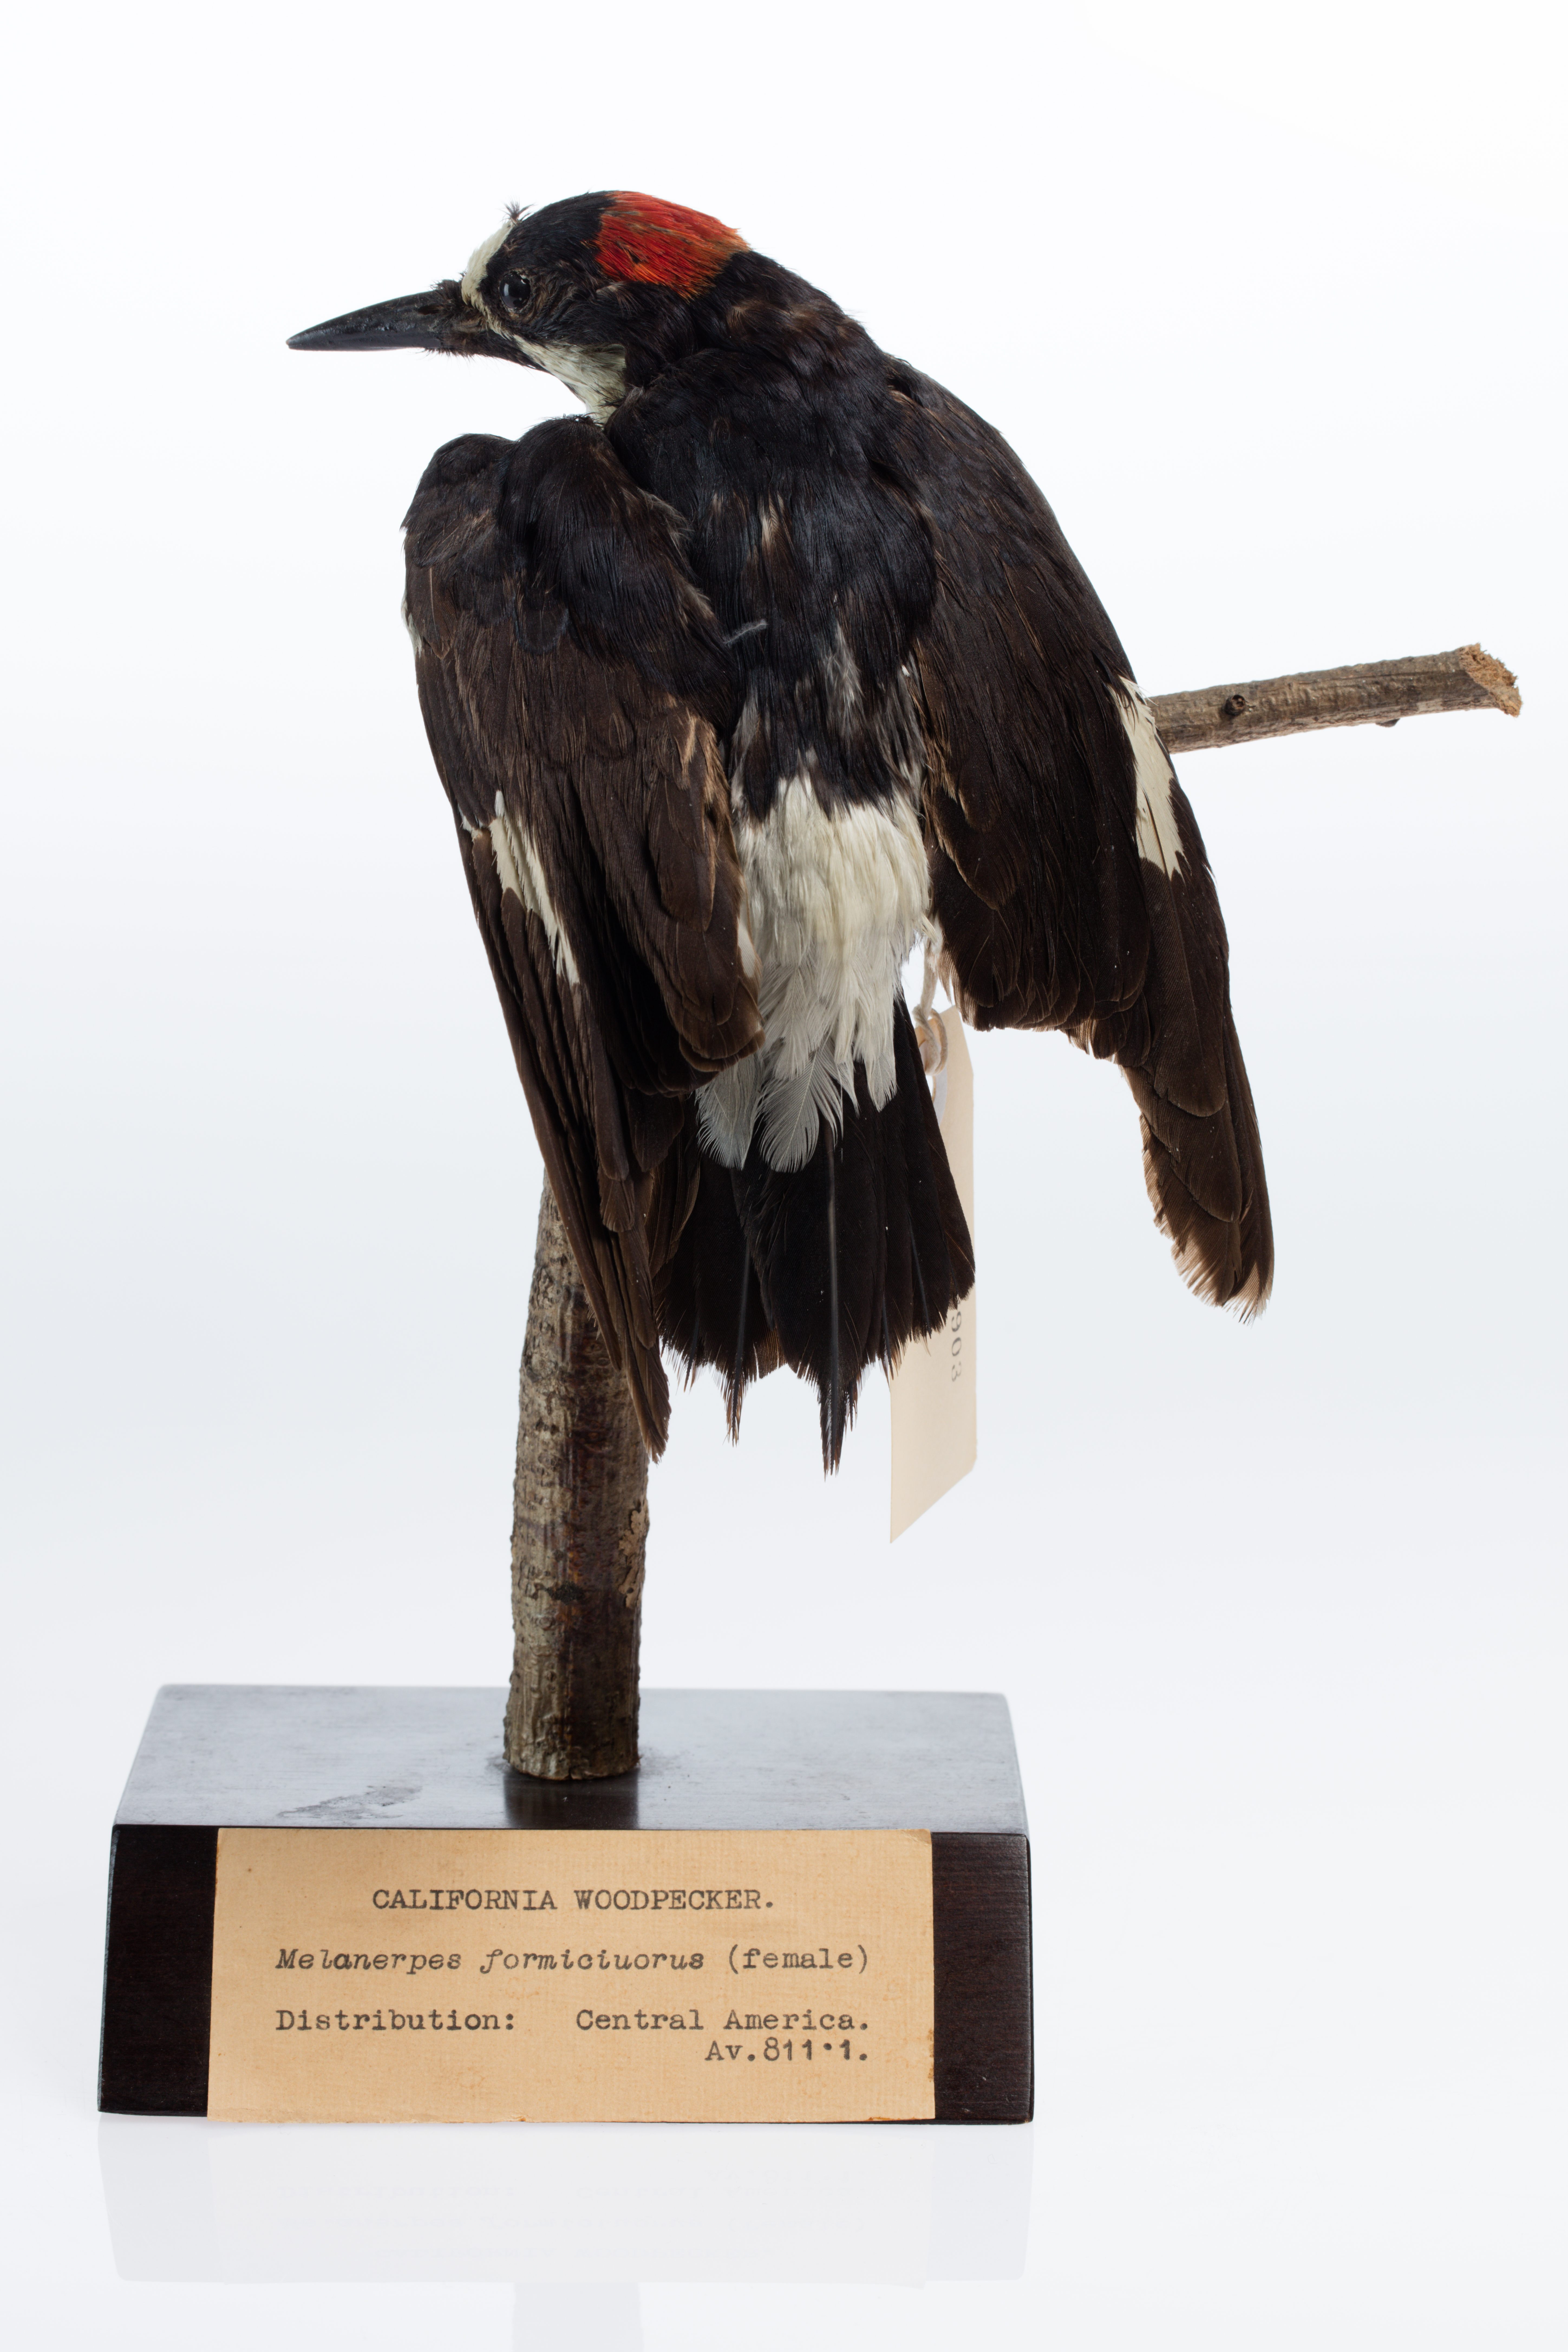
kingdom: Animalia
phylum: Chordata
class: Aves
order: Piciformes
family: Picidae
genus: Melanerpes
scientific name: Melanerpes formicivorus
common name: Acorn woodpecker
